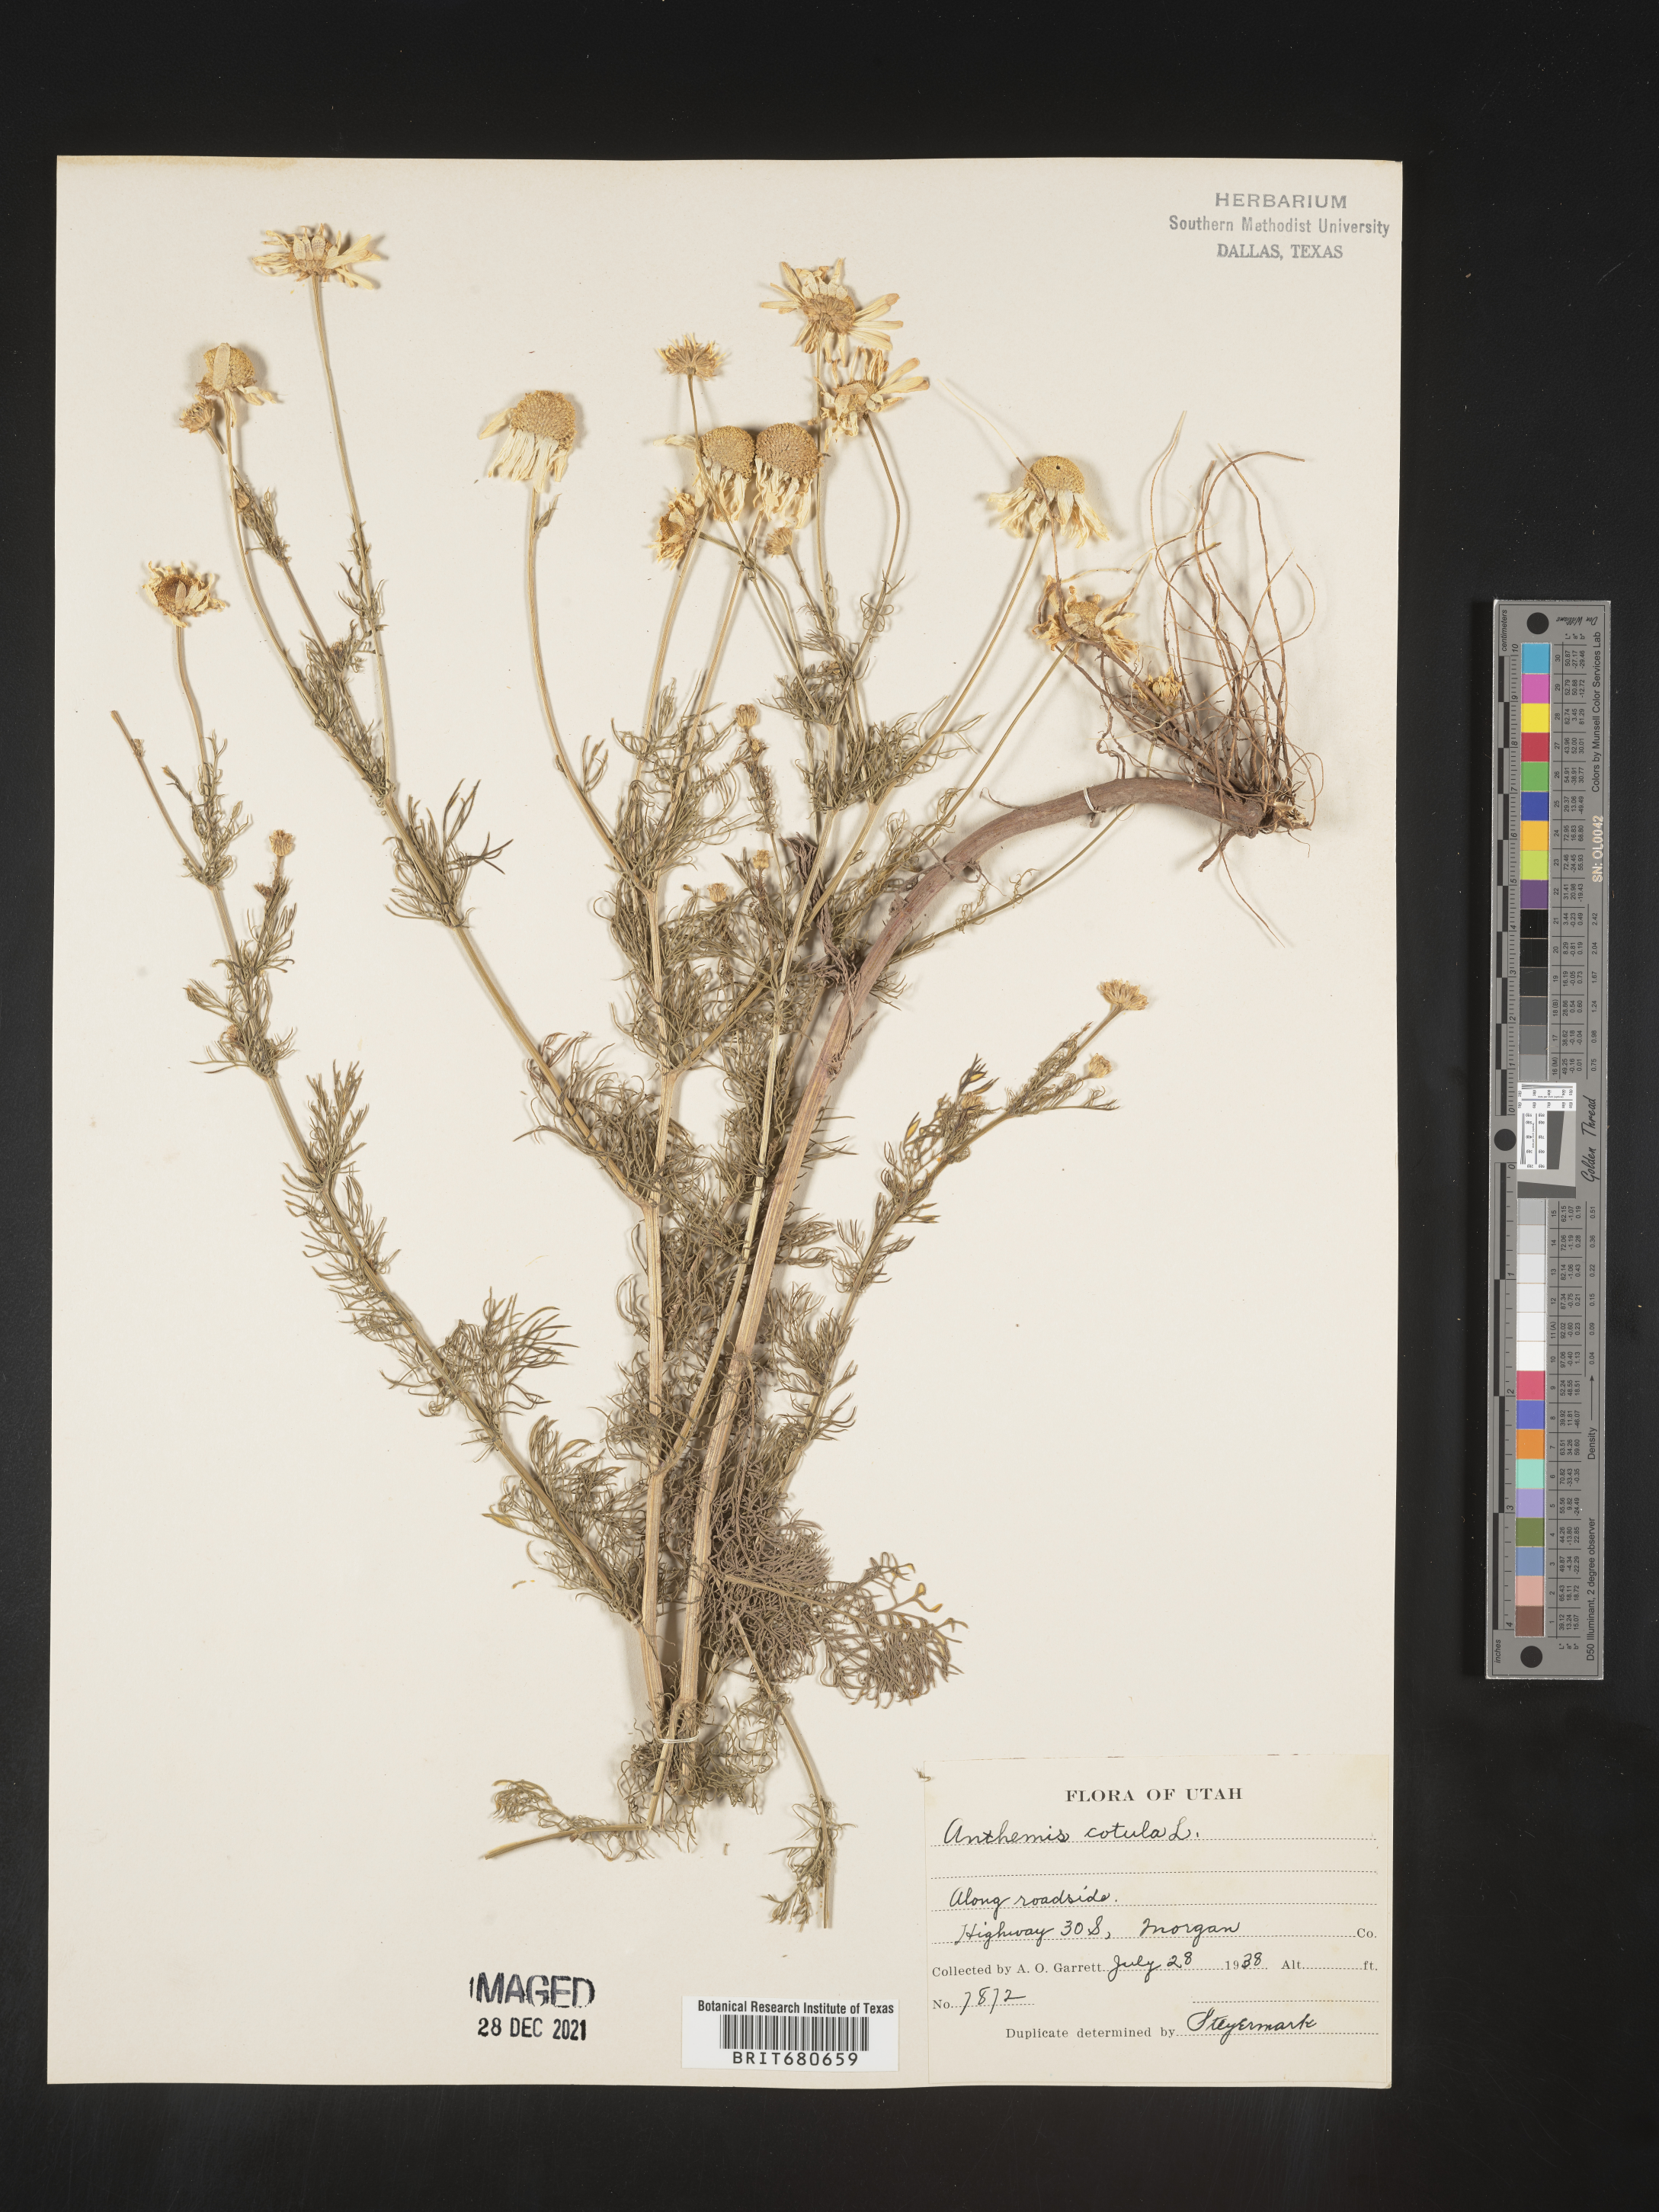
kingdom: Plantae
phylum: Tracheophyta
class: Magnoliopsida
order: Asterales
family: Asteraceae
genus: Anthemis
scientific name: Anthemis cotula
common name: Stinking chamomile
